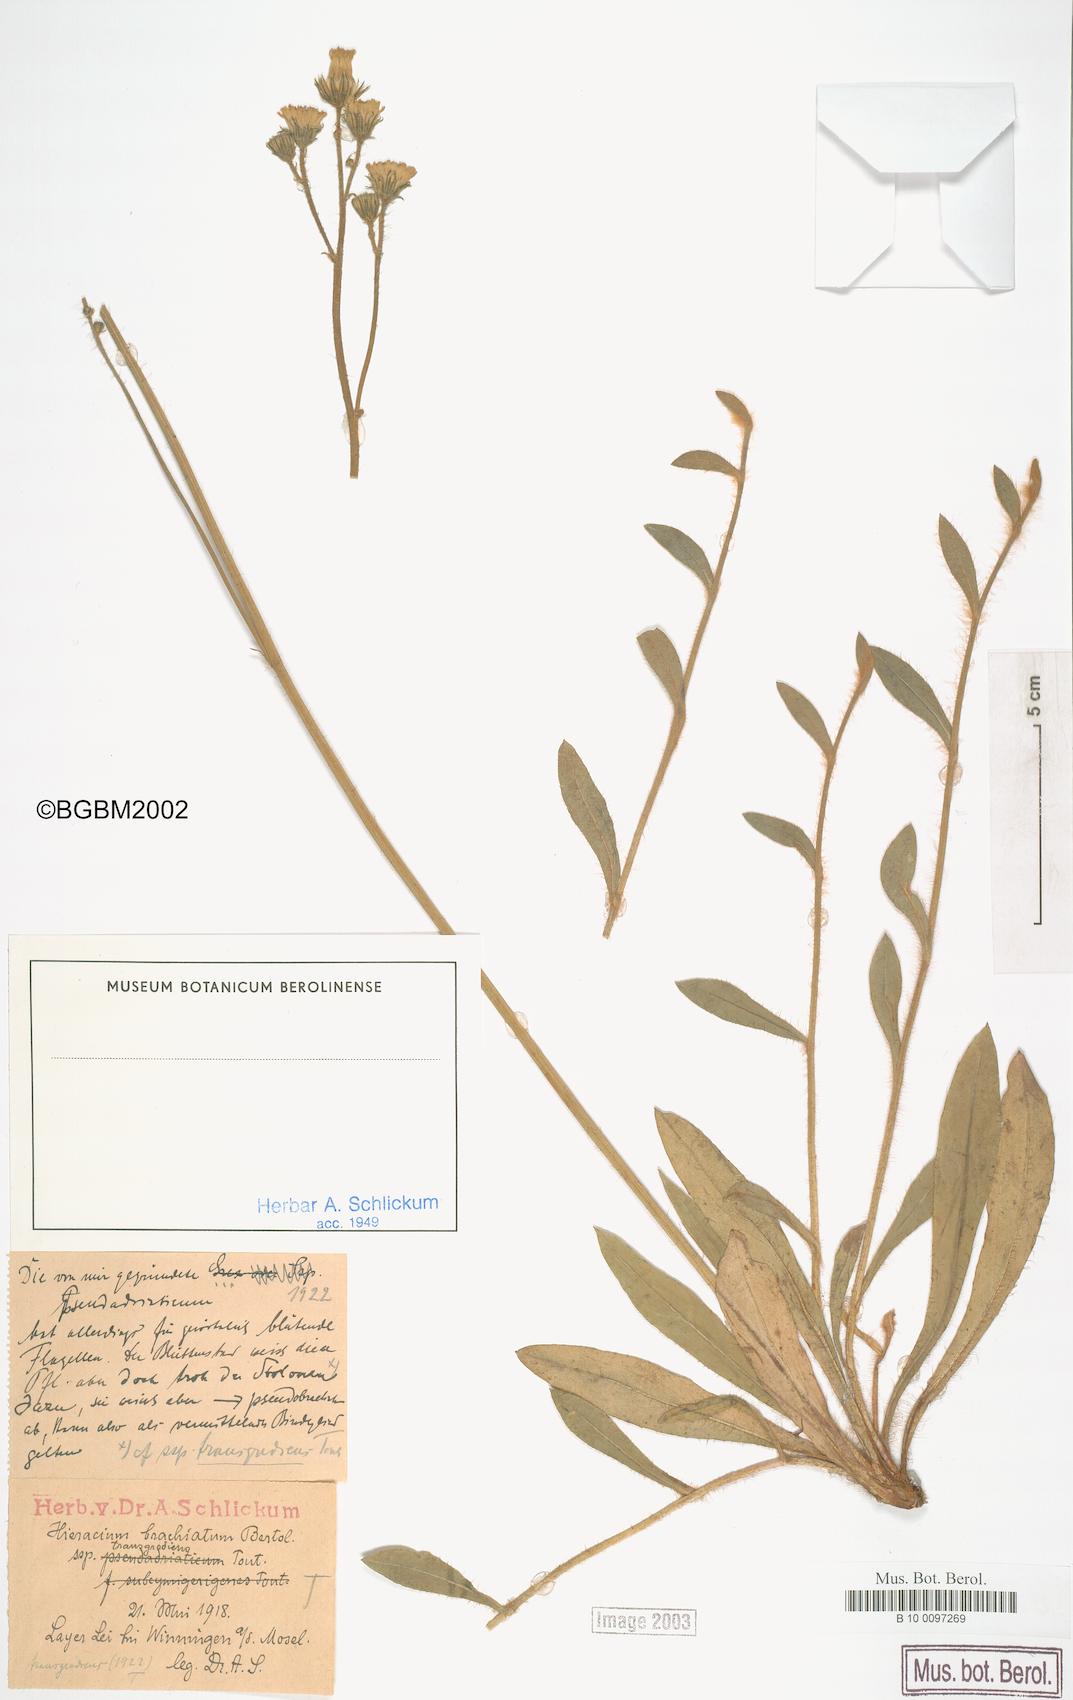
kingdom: Plantae
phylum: Tracheophyta
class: Magnoliopsida
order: Asterales
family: Asteraceae
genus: Pilosella
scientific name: Pilosella acutifolia
